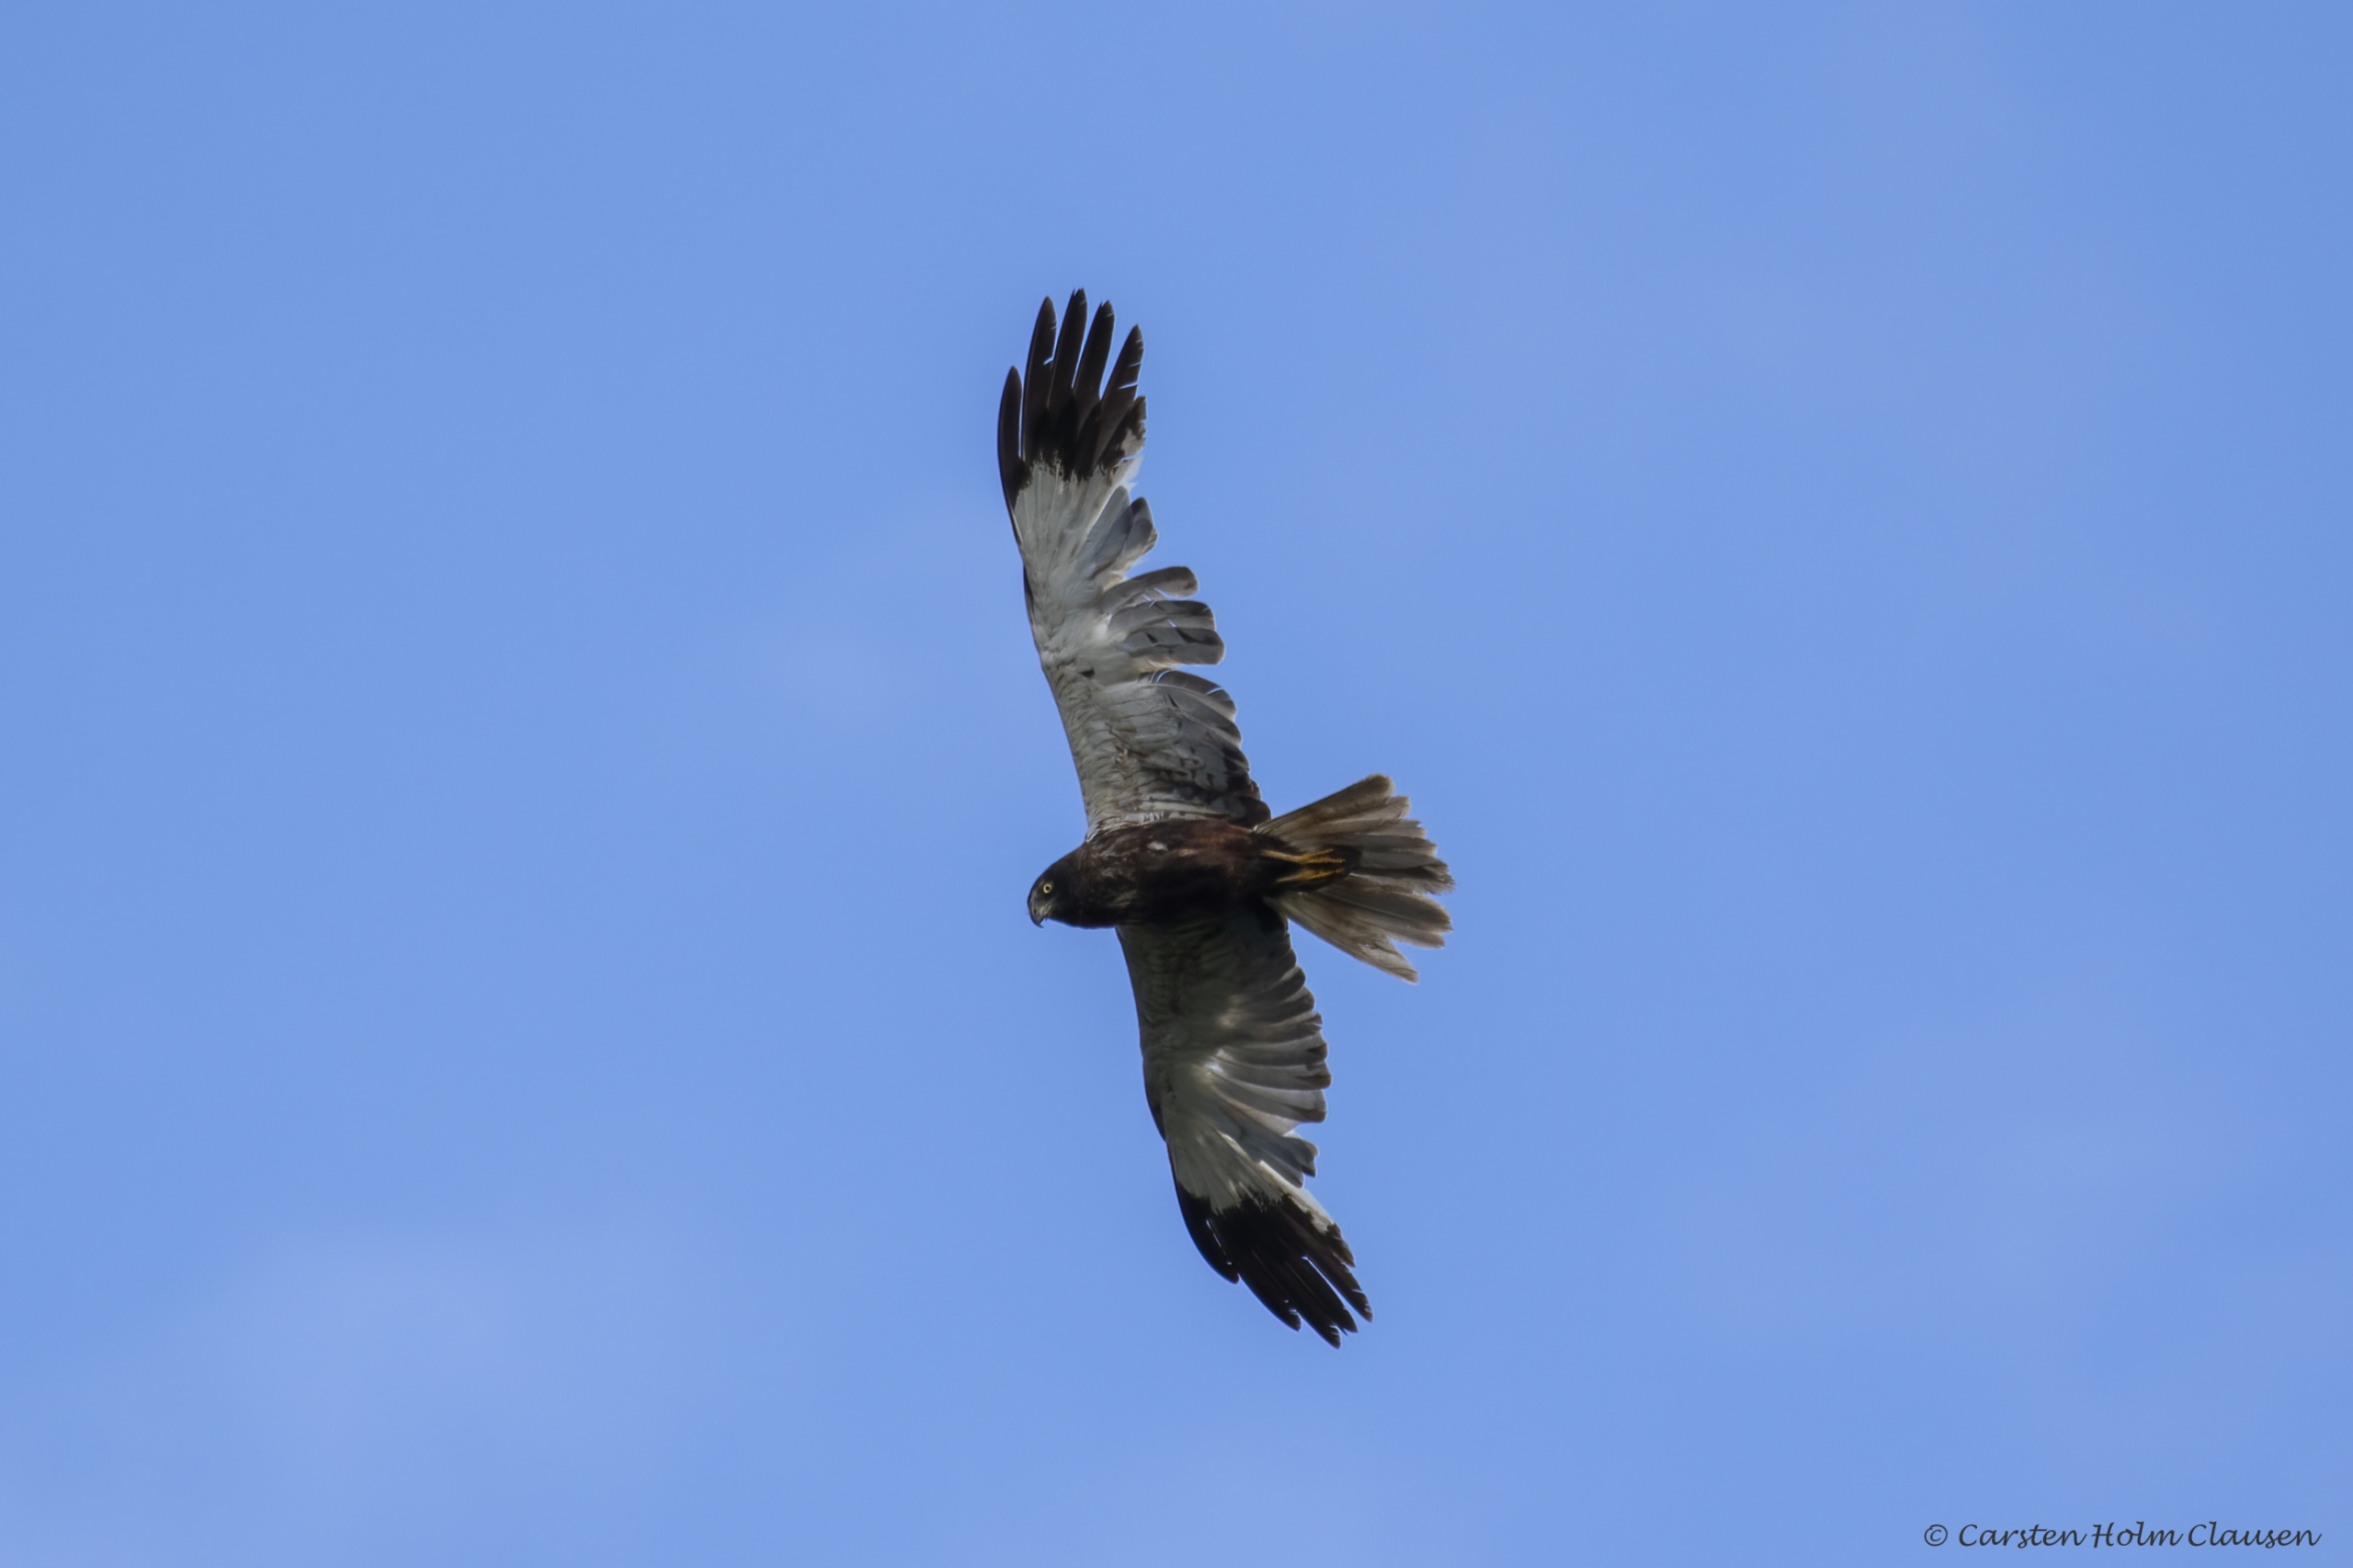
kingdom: Animalia
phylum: Chordata
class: Aves
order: Accipitriformes
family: Accipitridae
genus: Circus
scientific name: Circus aeruginosus
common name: Rørhøg
